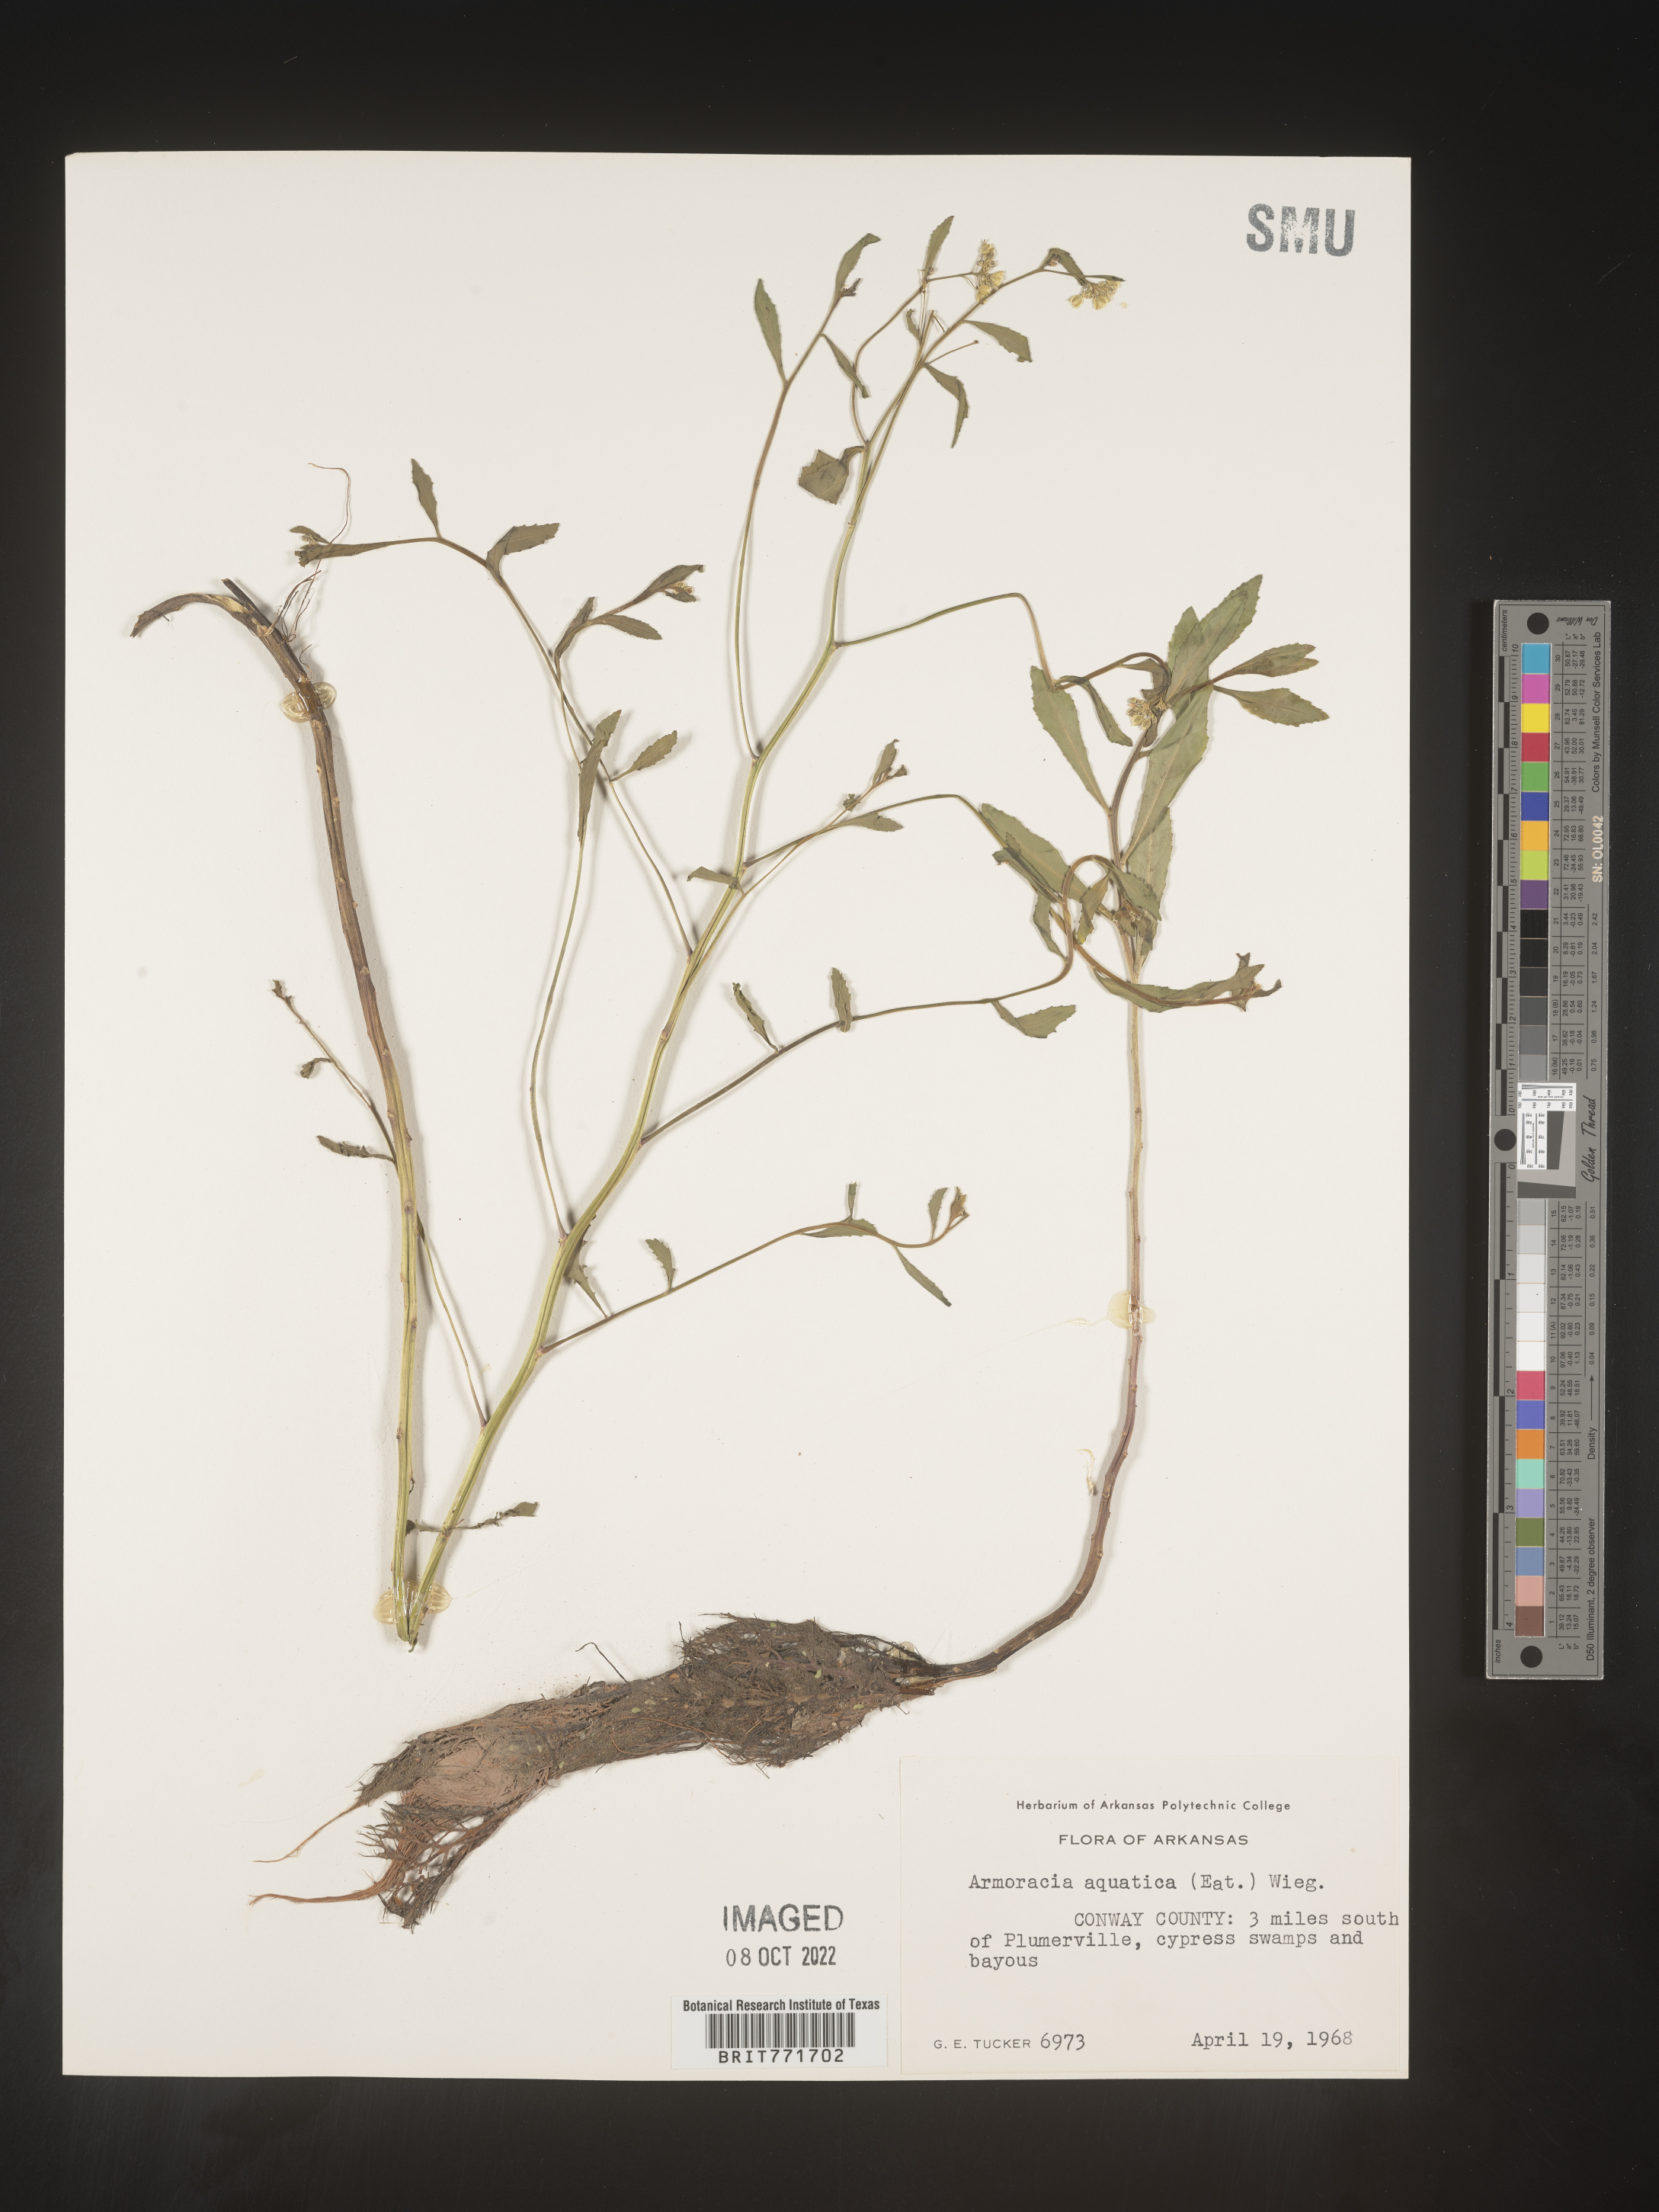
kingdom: Plantae
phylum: Tracheophyta
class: Magnoliopsida
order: Brassicales
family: Brassicaceae
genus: Armoracia
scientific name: Armoracia
